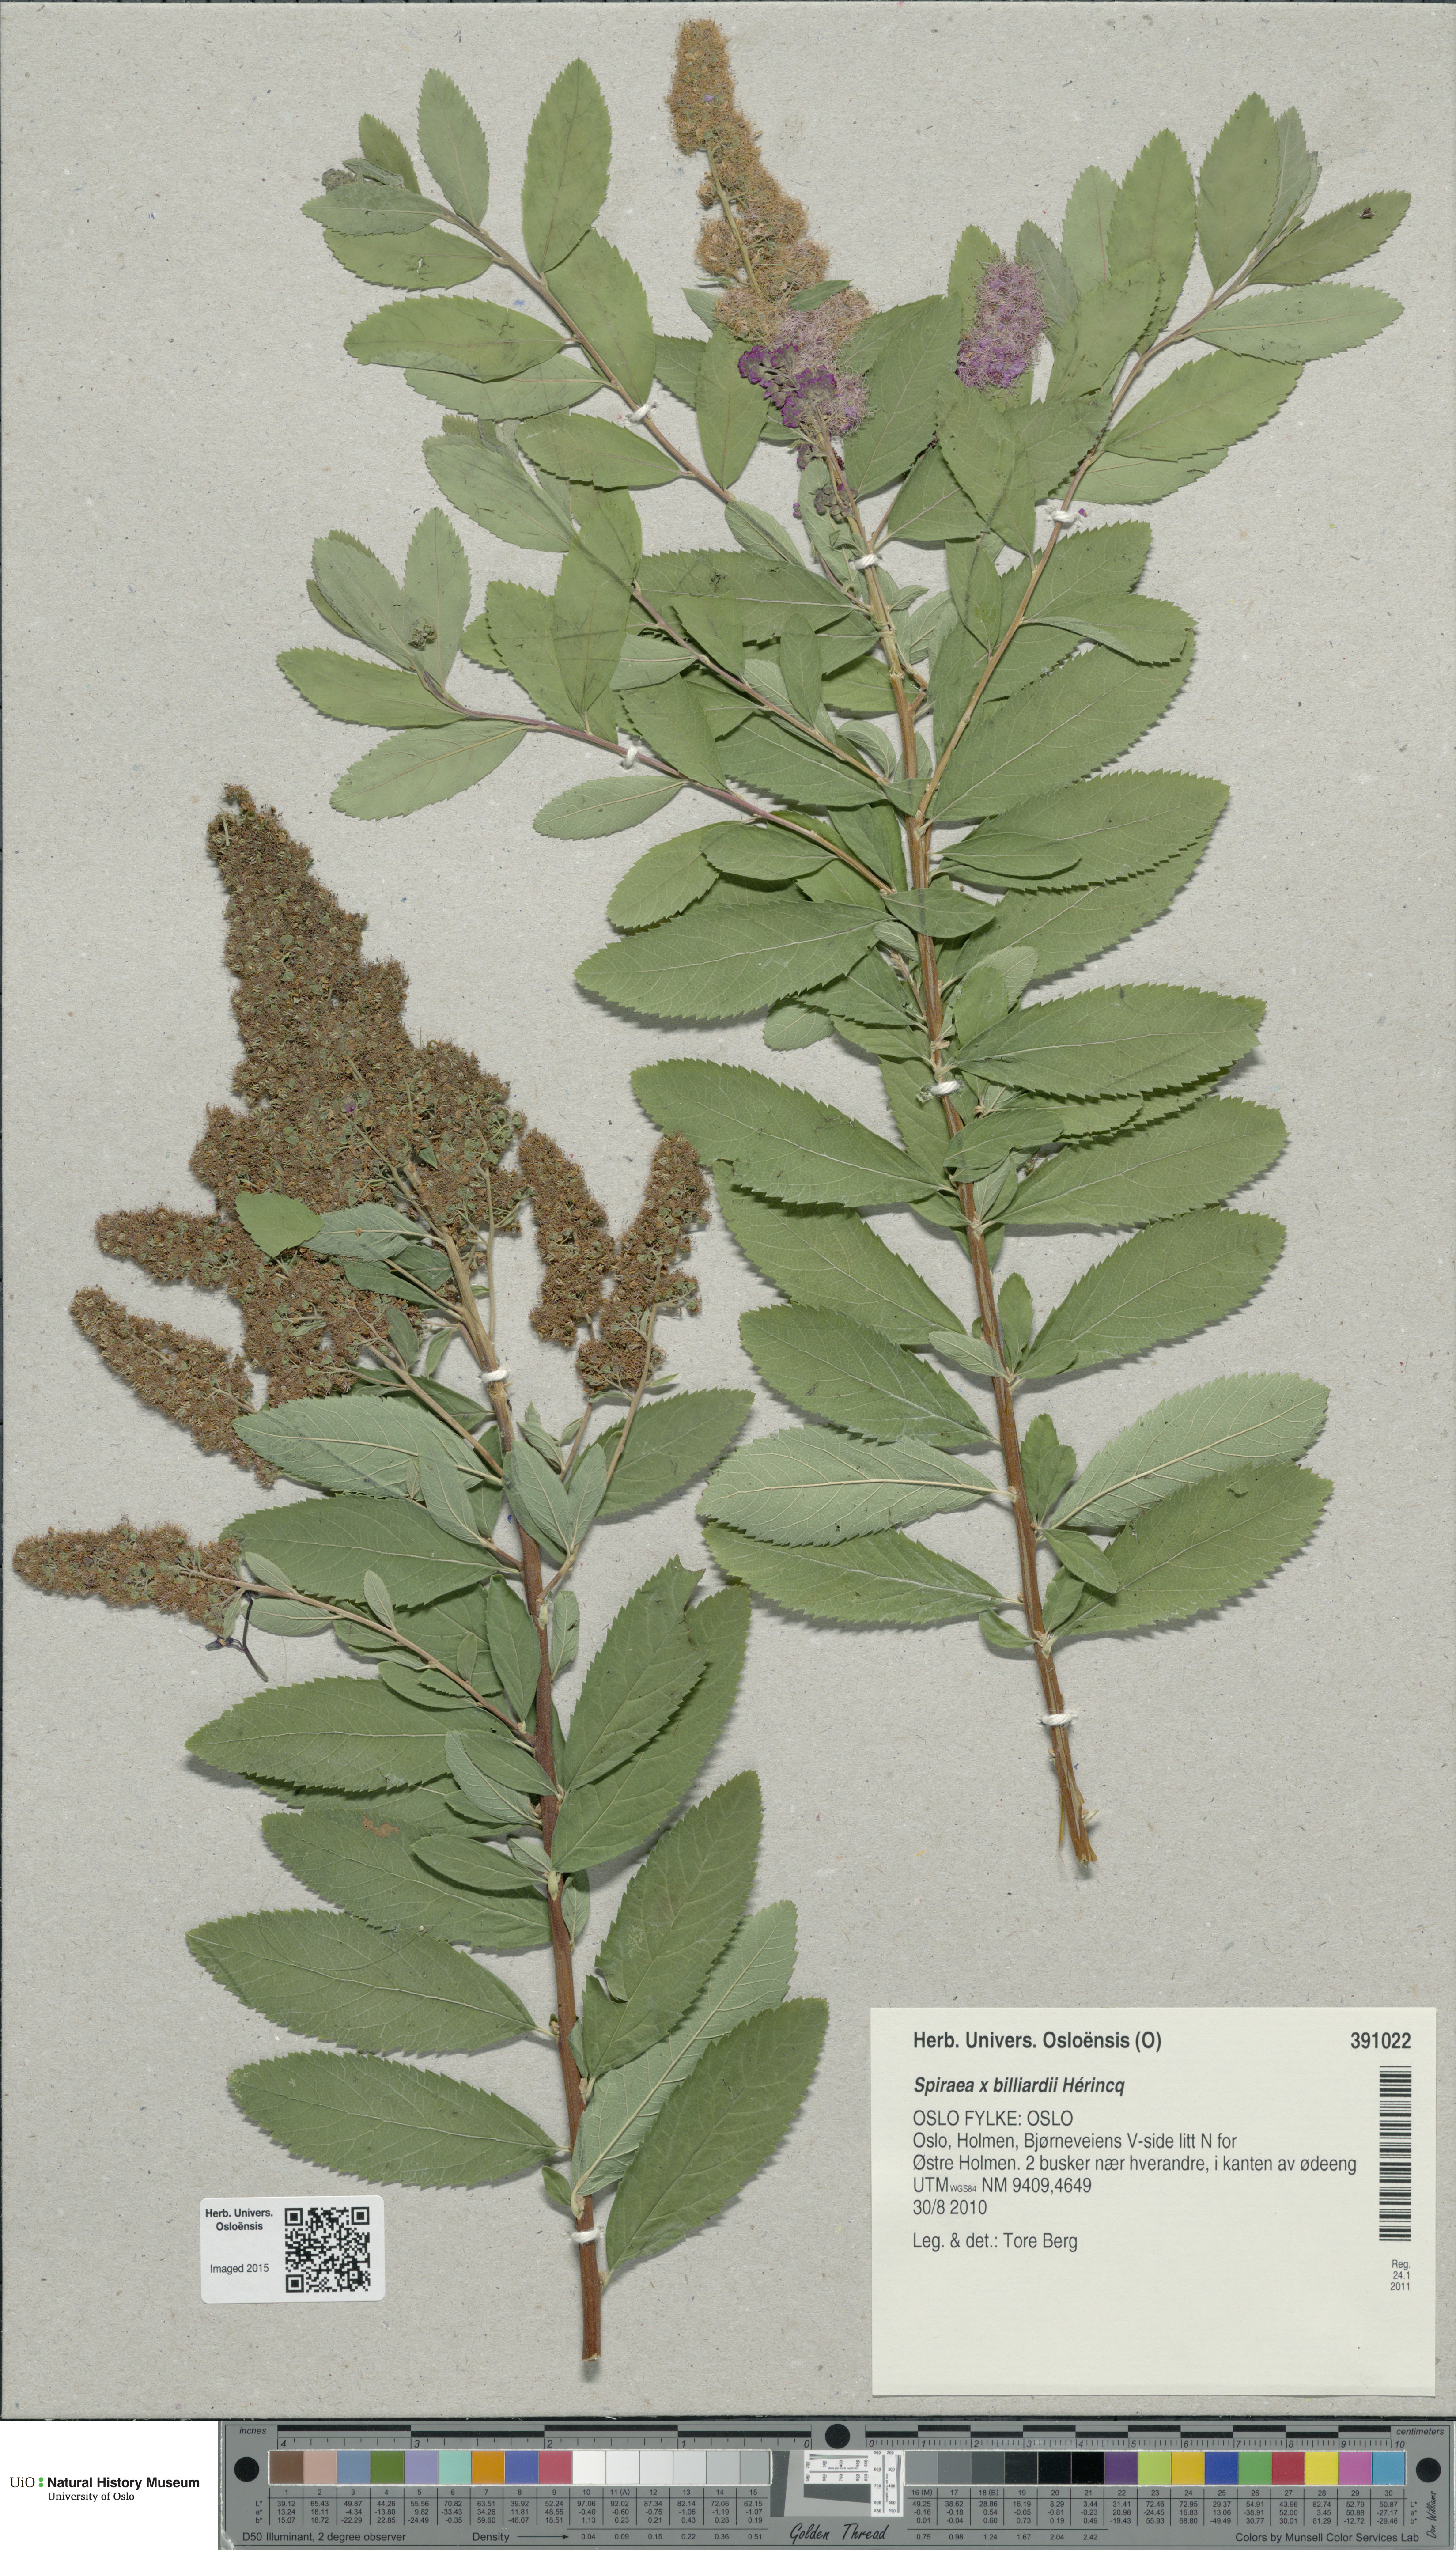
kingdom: Plantae
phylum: Tracheophyta
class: Magnoliopsida
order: Rosales
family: Rosaceae
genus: Spiraea
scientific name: Spiraea billardii
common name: Billard's bridewort
